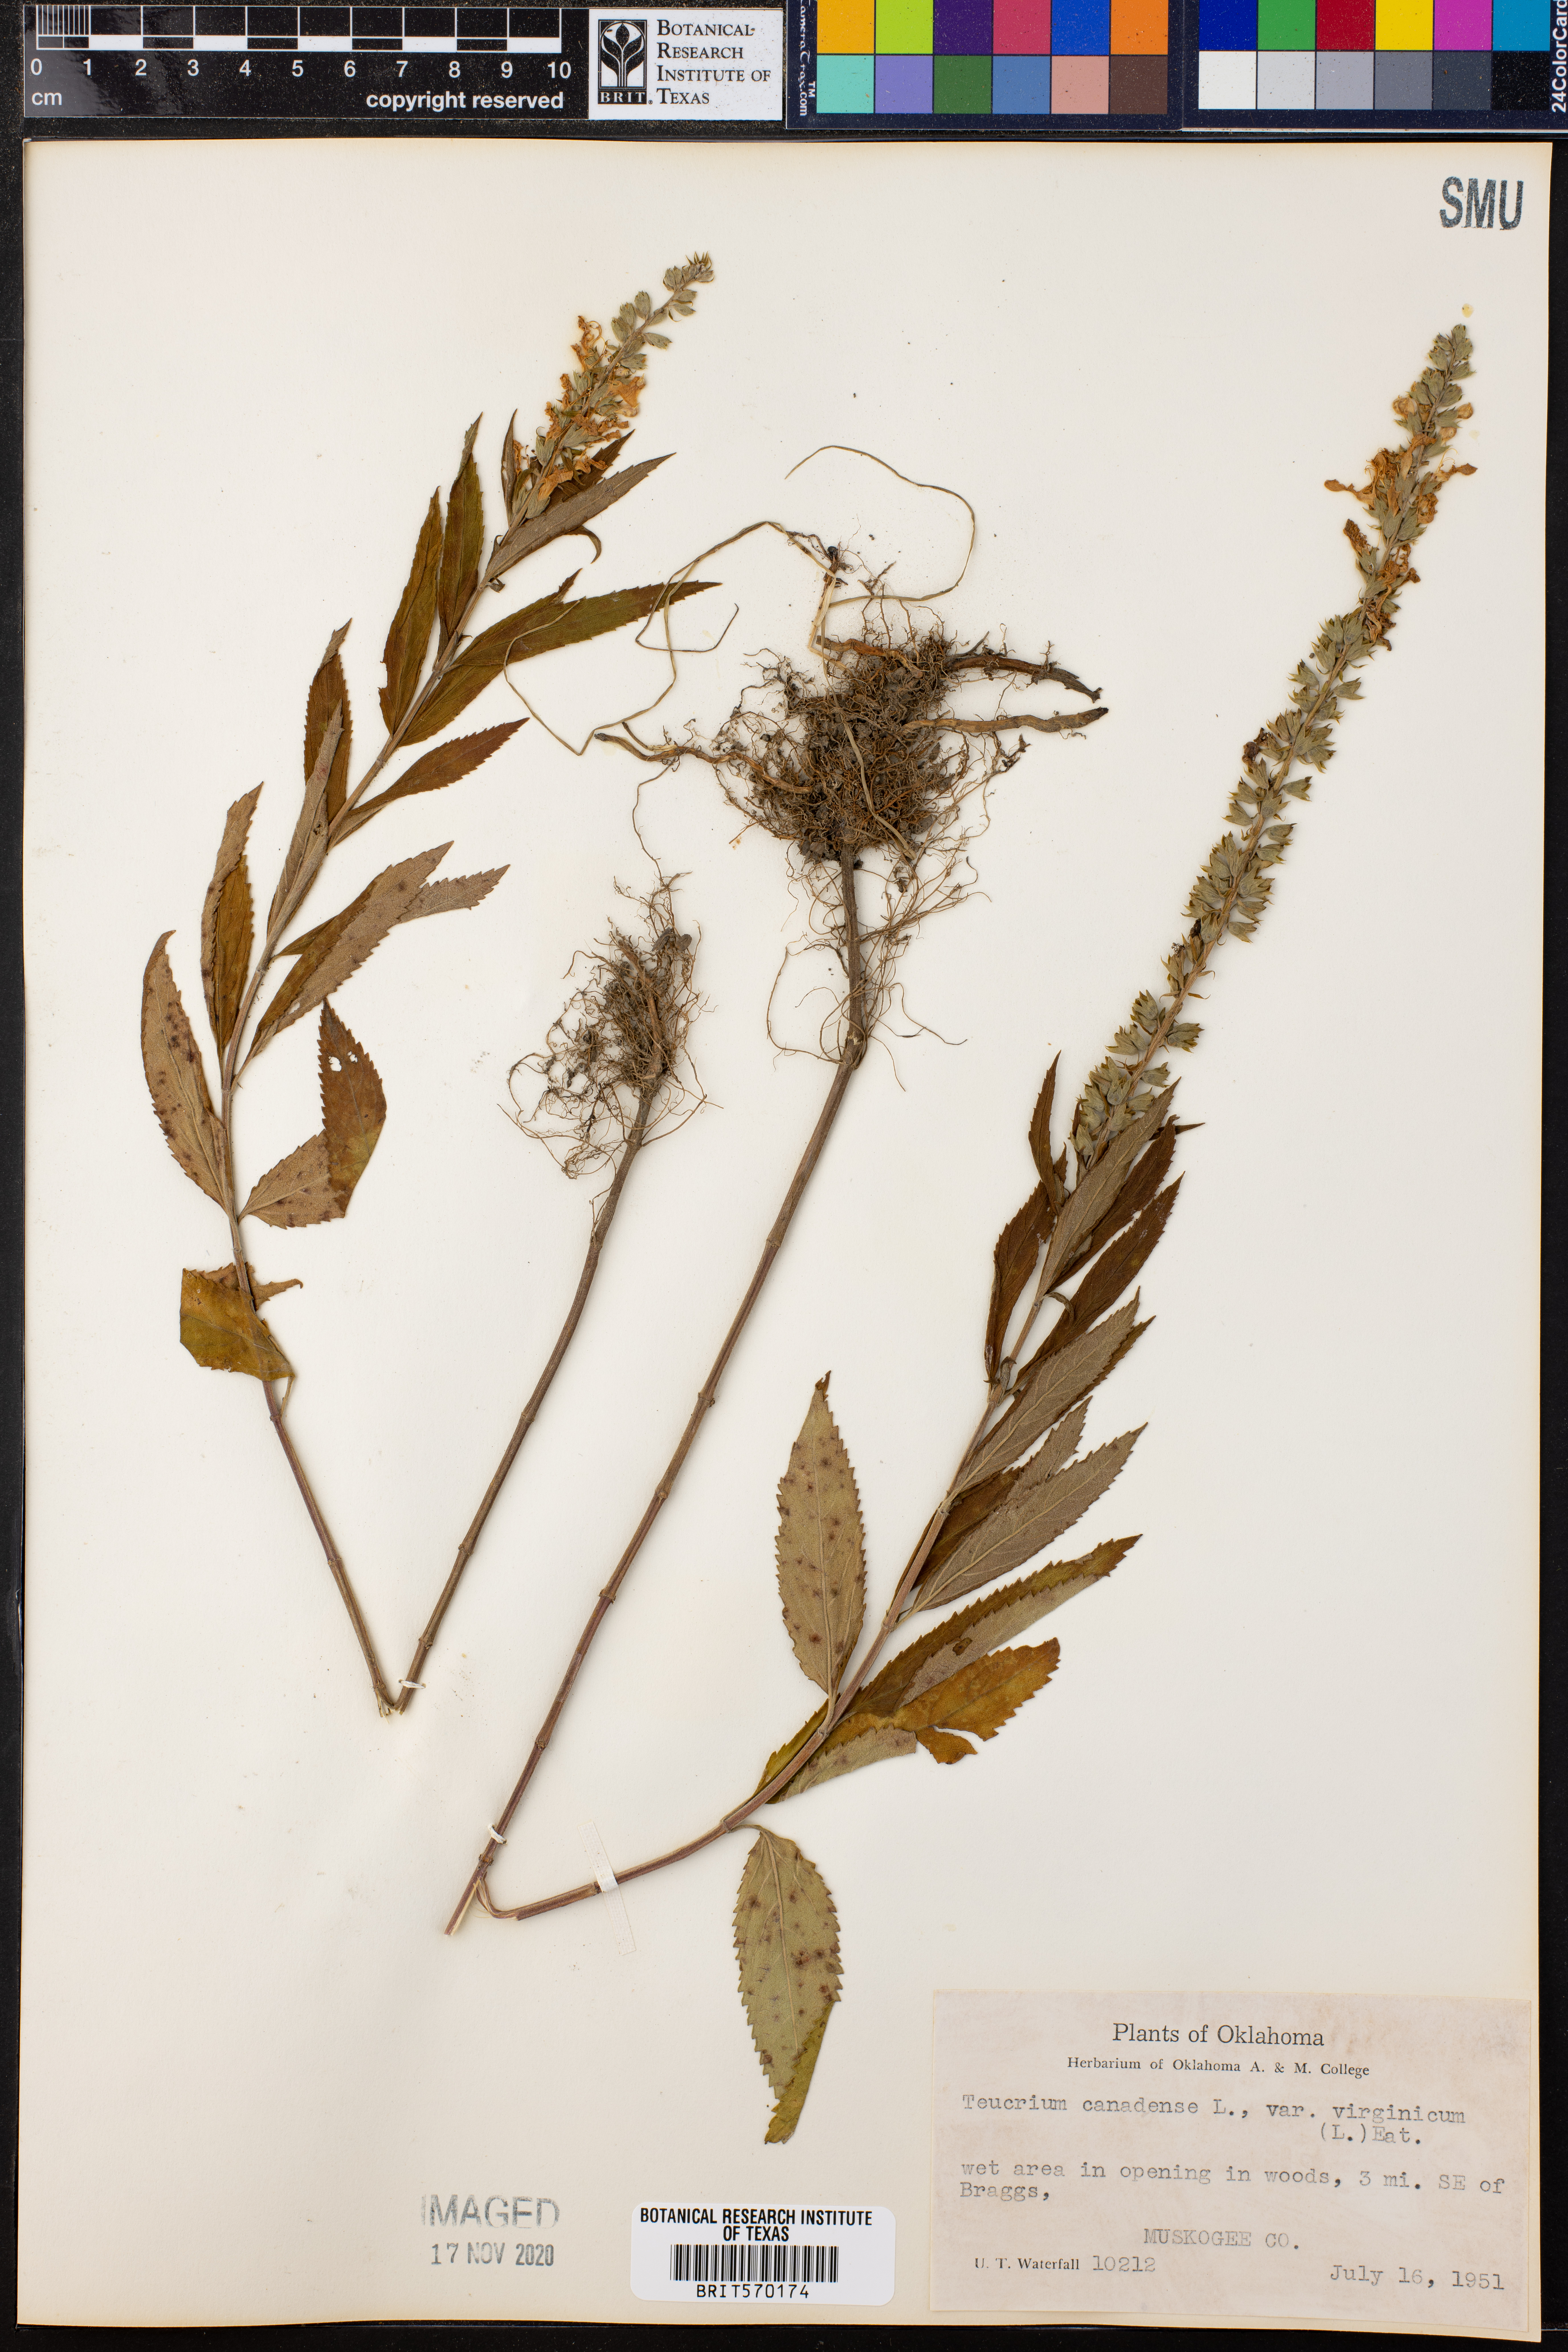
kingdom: Plantae
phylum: Tracheophyta
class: Magnoliopsida
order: Lamiales
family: Lamiaceae
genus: Teucrium
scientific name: Teucrium canadense
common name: American germander
